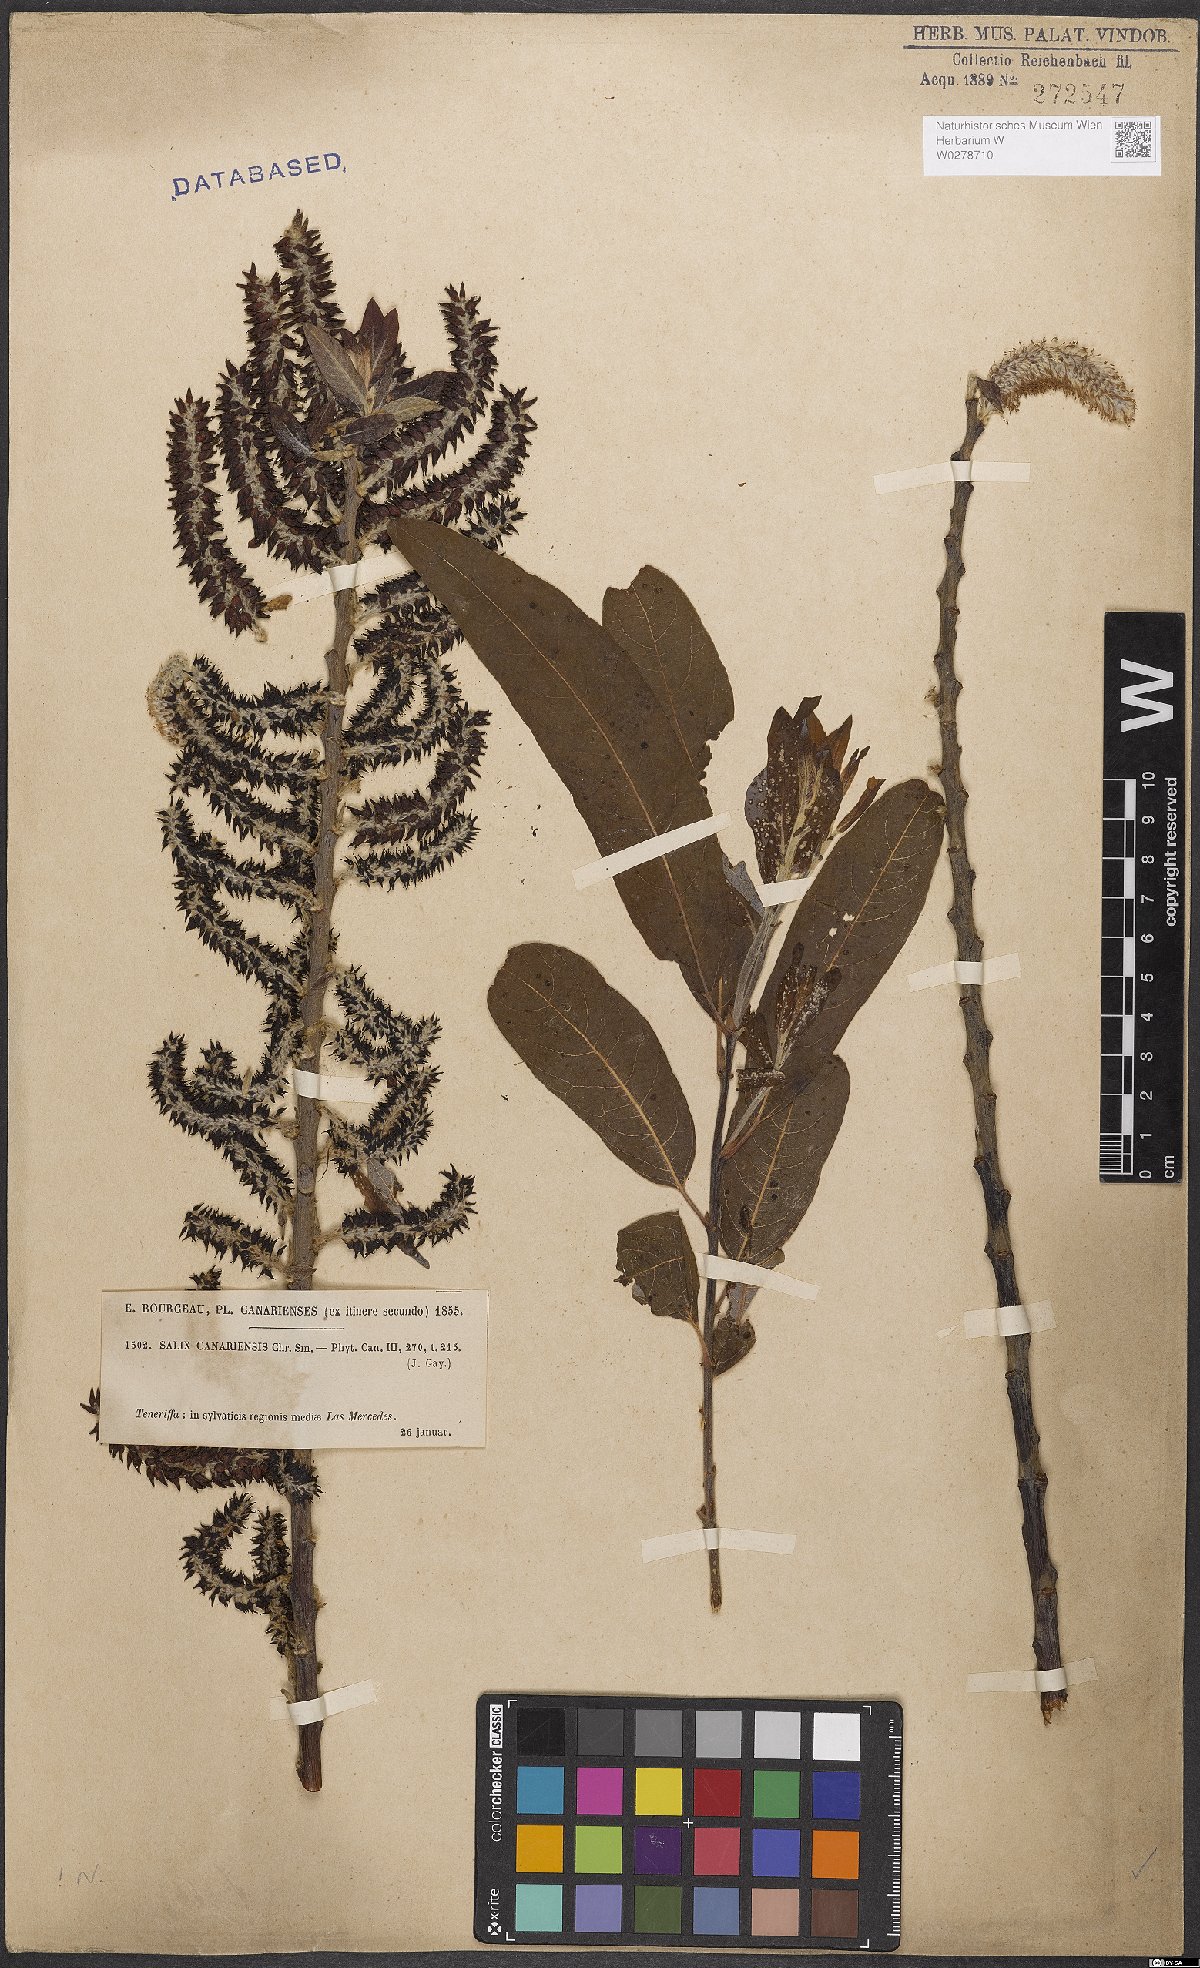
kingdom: Plantae
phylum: Tracheophyta
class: Magnoliopsida
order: Malpighiales
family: Salicaceae
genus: Salix
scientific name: Salix canariensis
